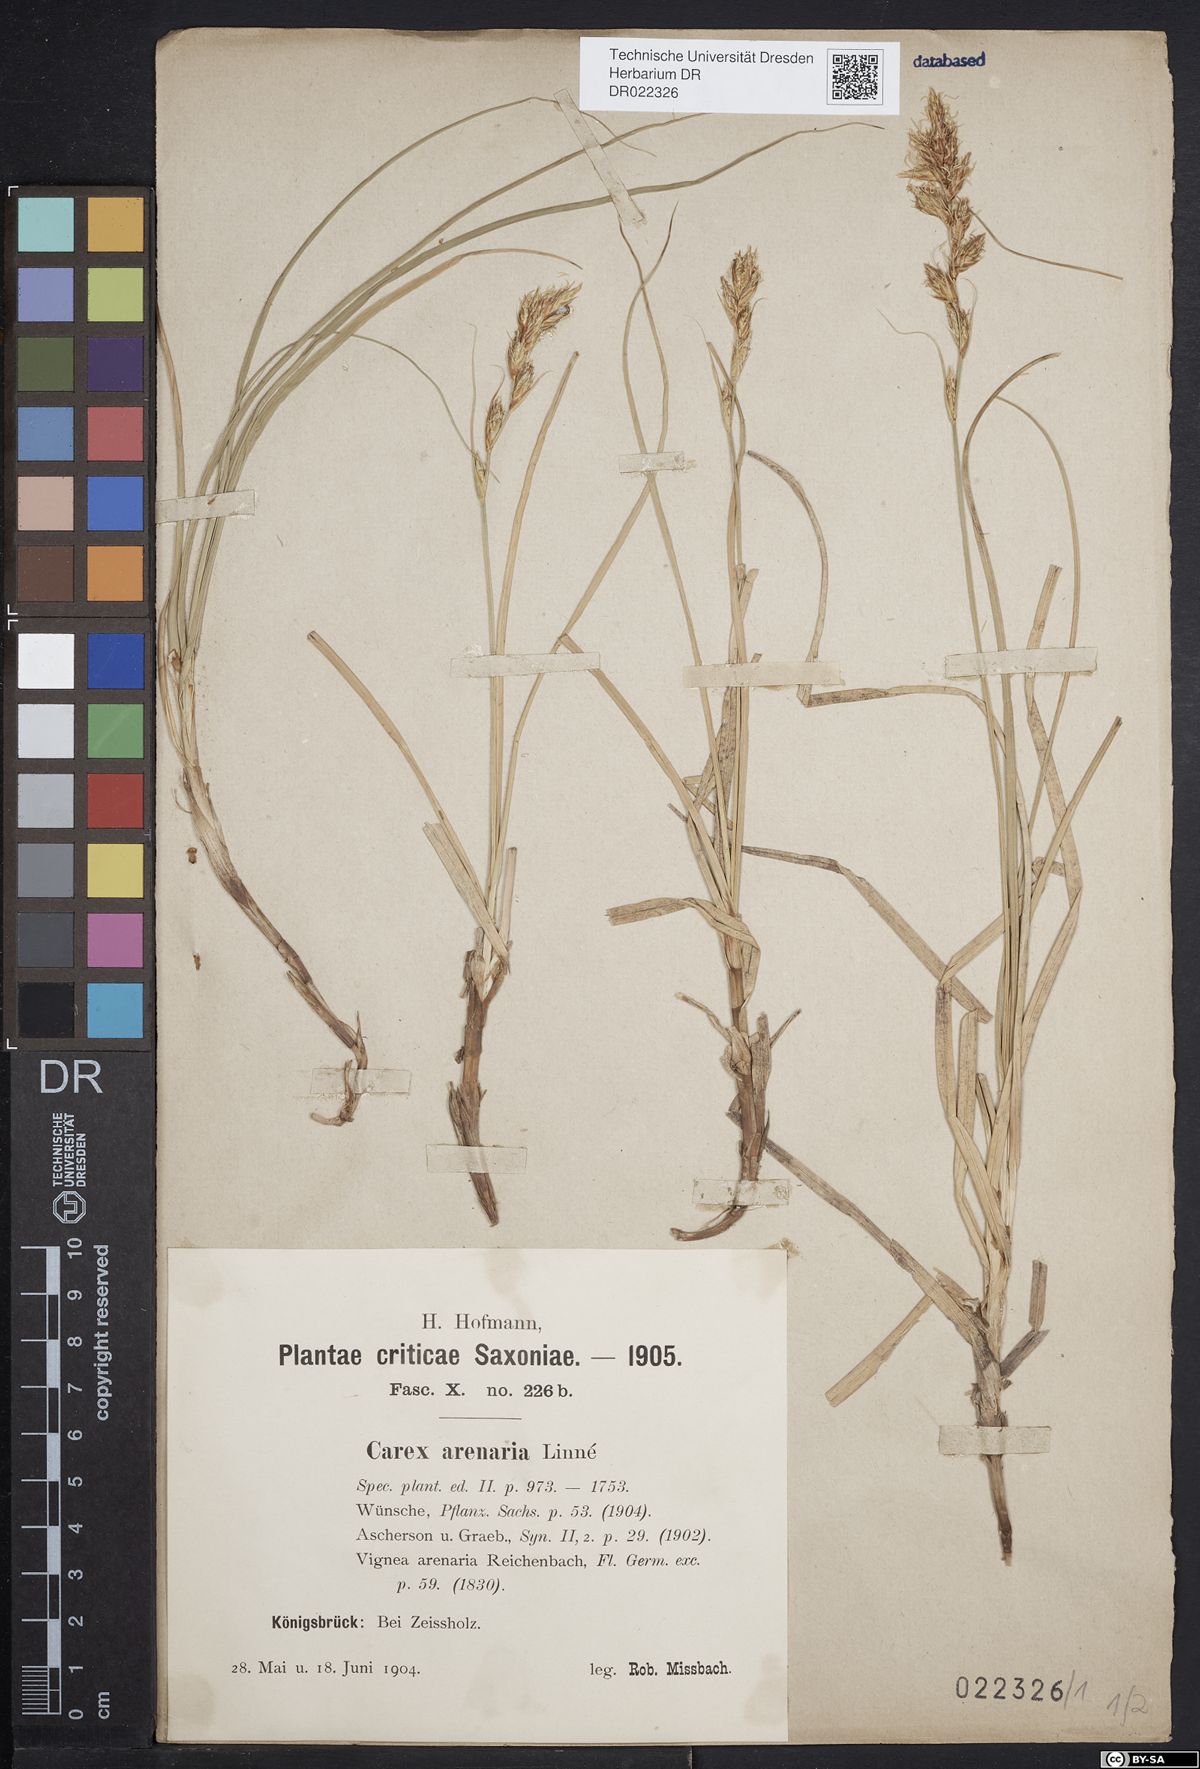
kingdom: Plantae
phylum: Tracheophyta
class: Liliopsida
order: Poales
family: Cyperaceae
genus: Carex
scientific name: Carex arenaria
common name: Sand sedge
